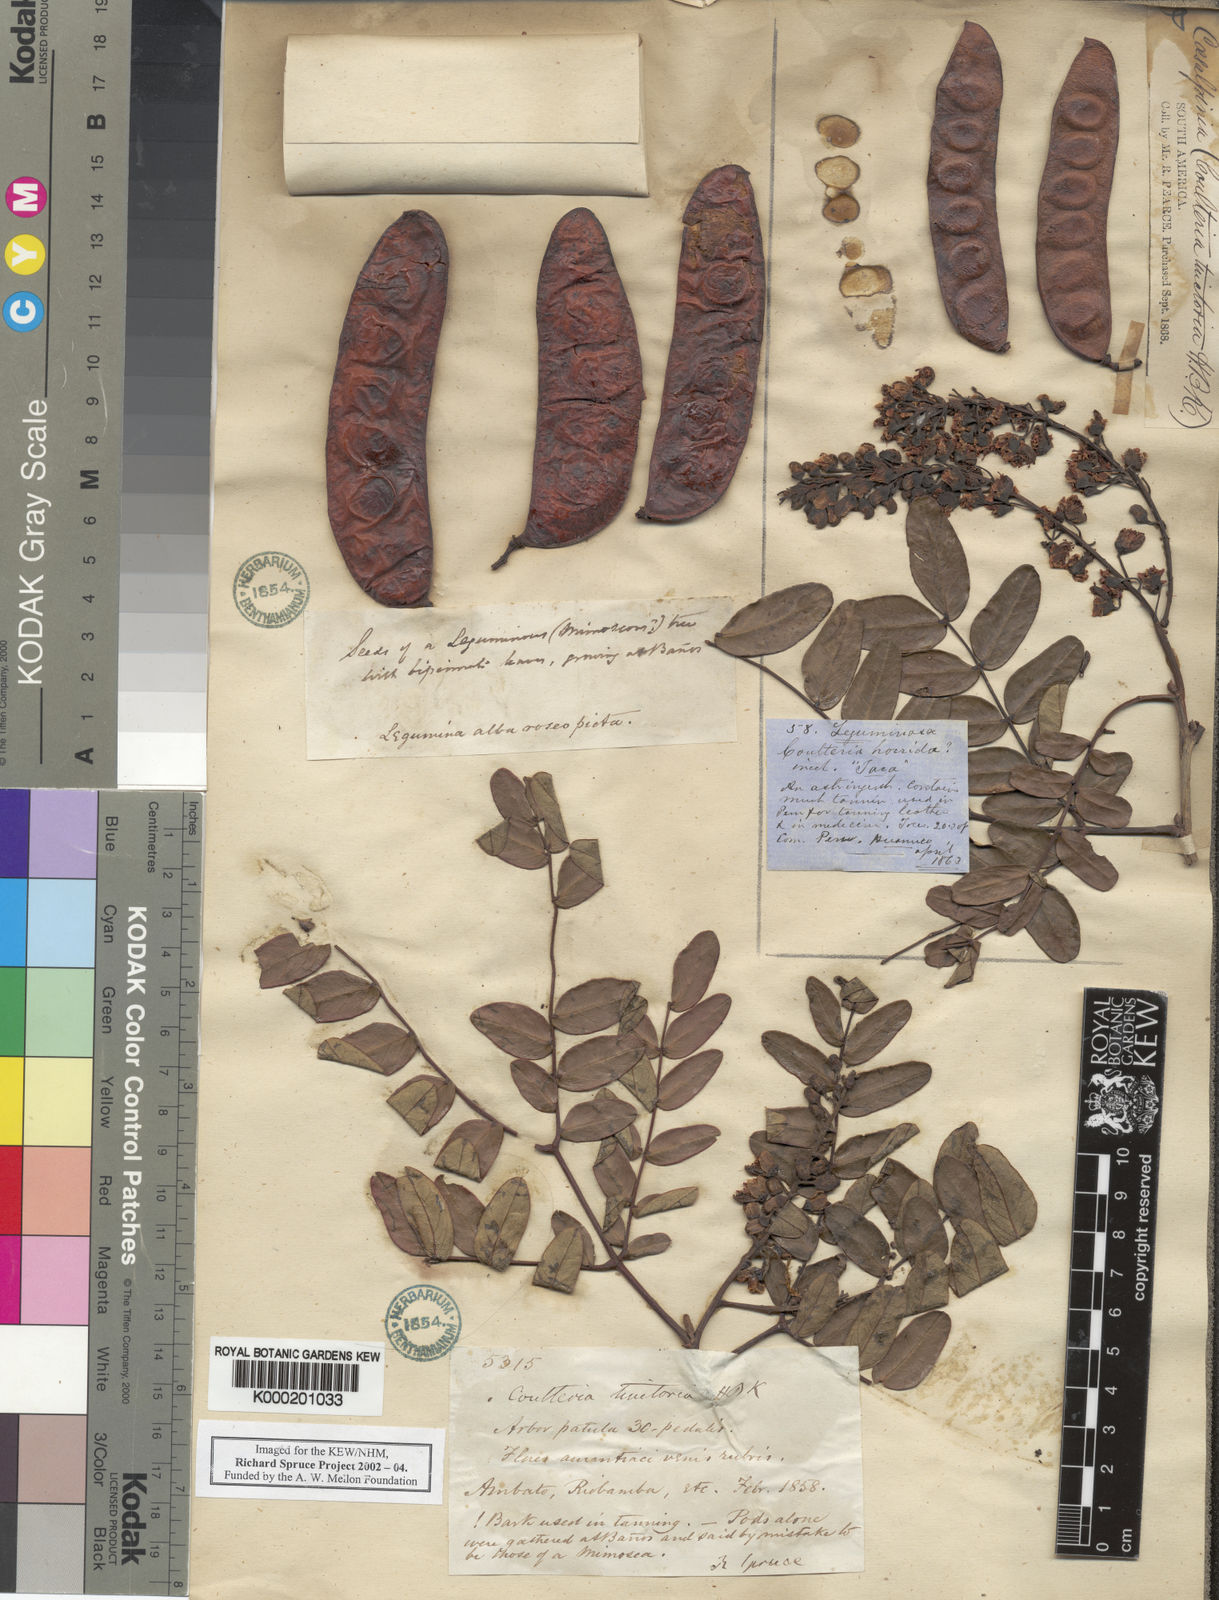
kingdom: Plantae
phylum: Tracheophyta
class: Magnoliopsida
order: Fabales
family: Fabaceae
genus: Tara
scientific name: Tara spinosa
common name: Spiny holdback
